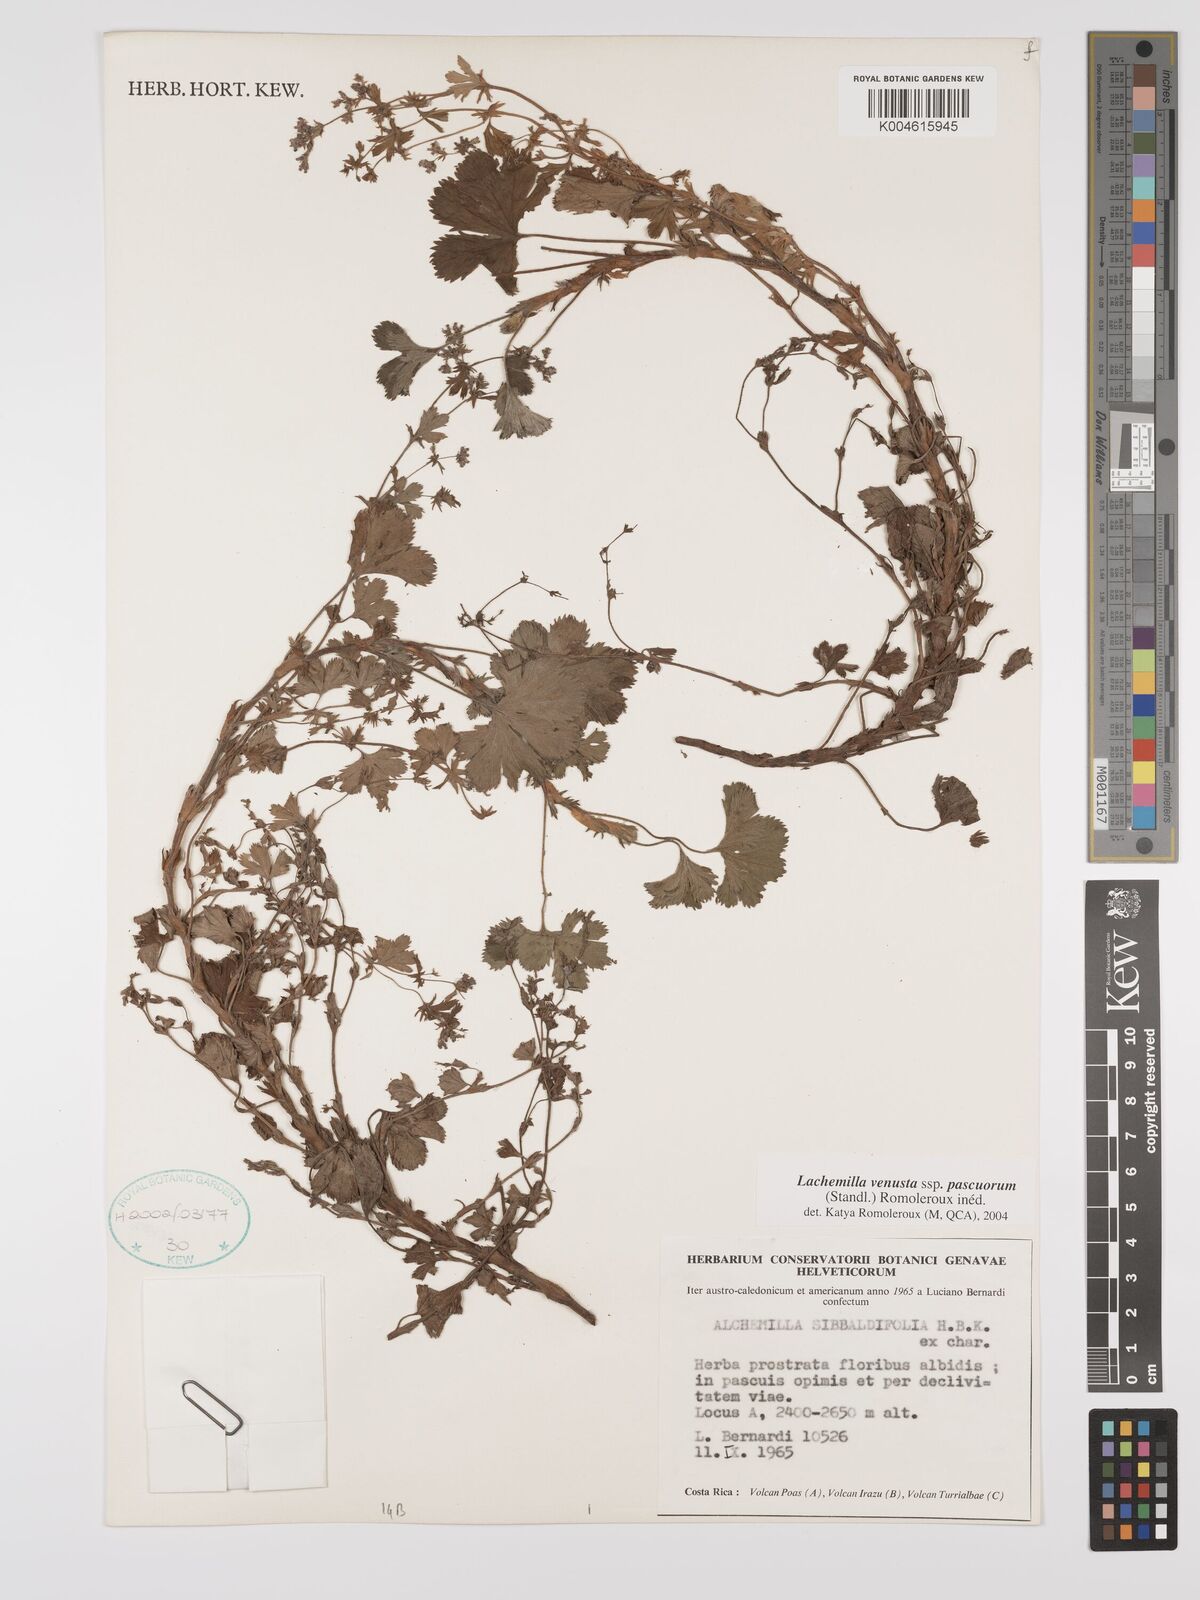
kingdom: Plantae
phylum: Tracheophyta
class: Magnoliopsida
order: Rosales
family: Rosaceae
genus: Lachemilla
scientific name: Lachemilla venusta
